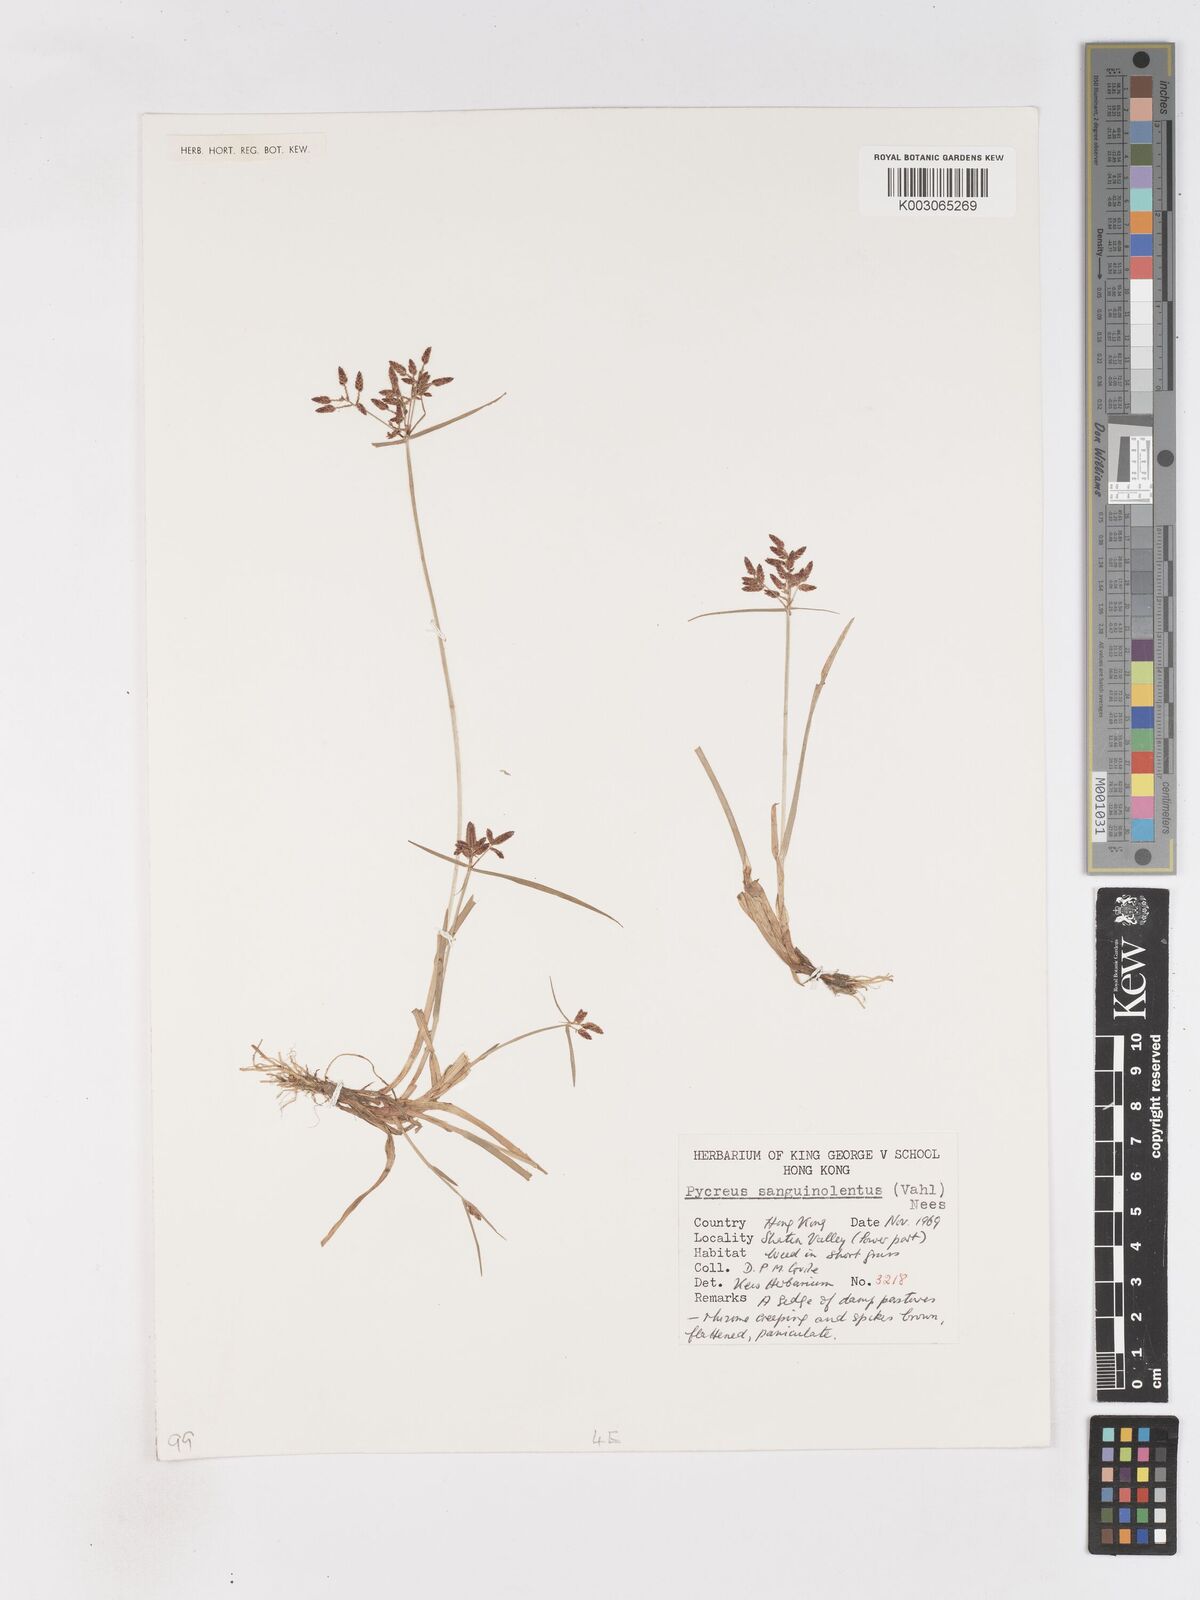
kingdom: Plantae
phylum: Tracheophyta
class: Liliopsida
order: Poales
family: Cyperaceae
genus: Cyperus
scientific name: Cyperus sanguinolentus
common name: Purpleglume flatsedge
